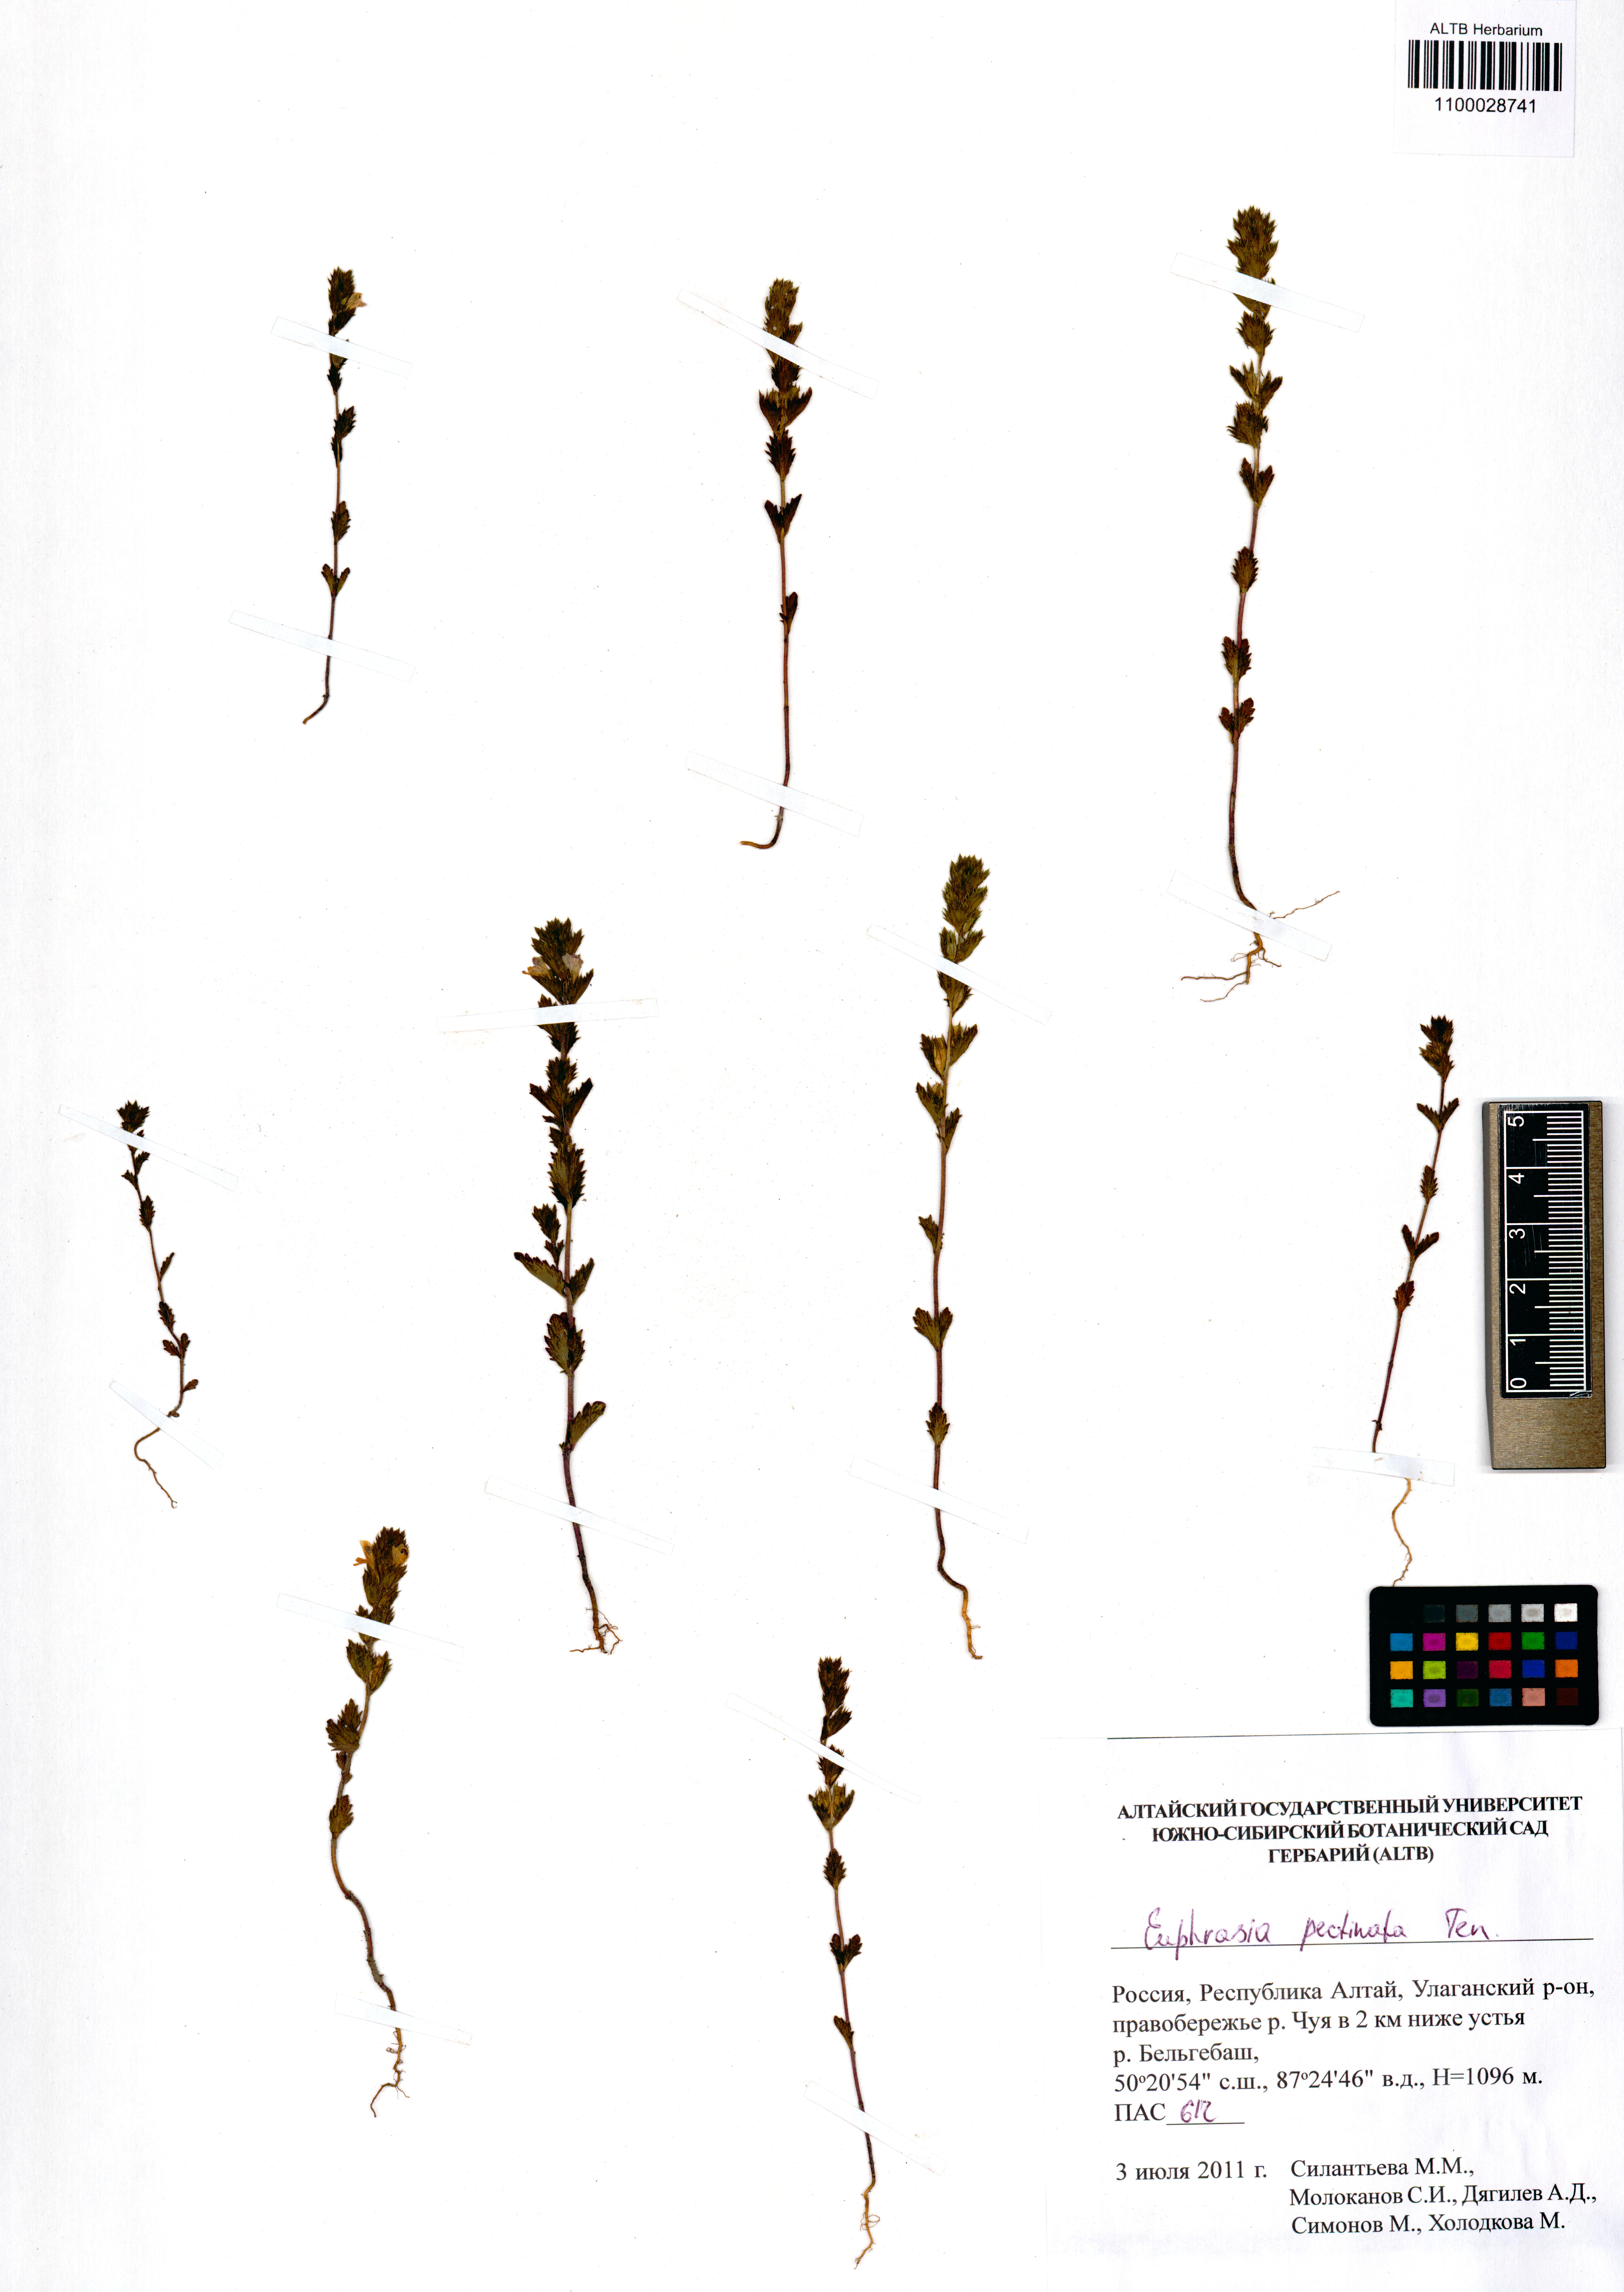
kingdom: Plantae
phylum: Tracheophyta
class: Magnoliopsida
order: Lamiales
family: Orobanchaceae
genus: Euphrasia
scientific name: Euphrasia pectinata
